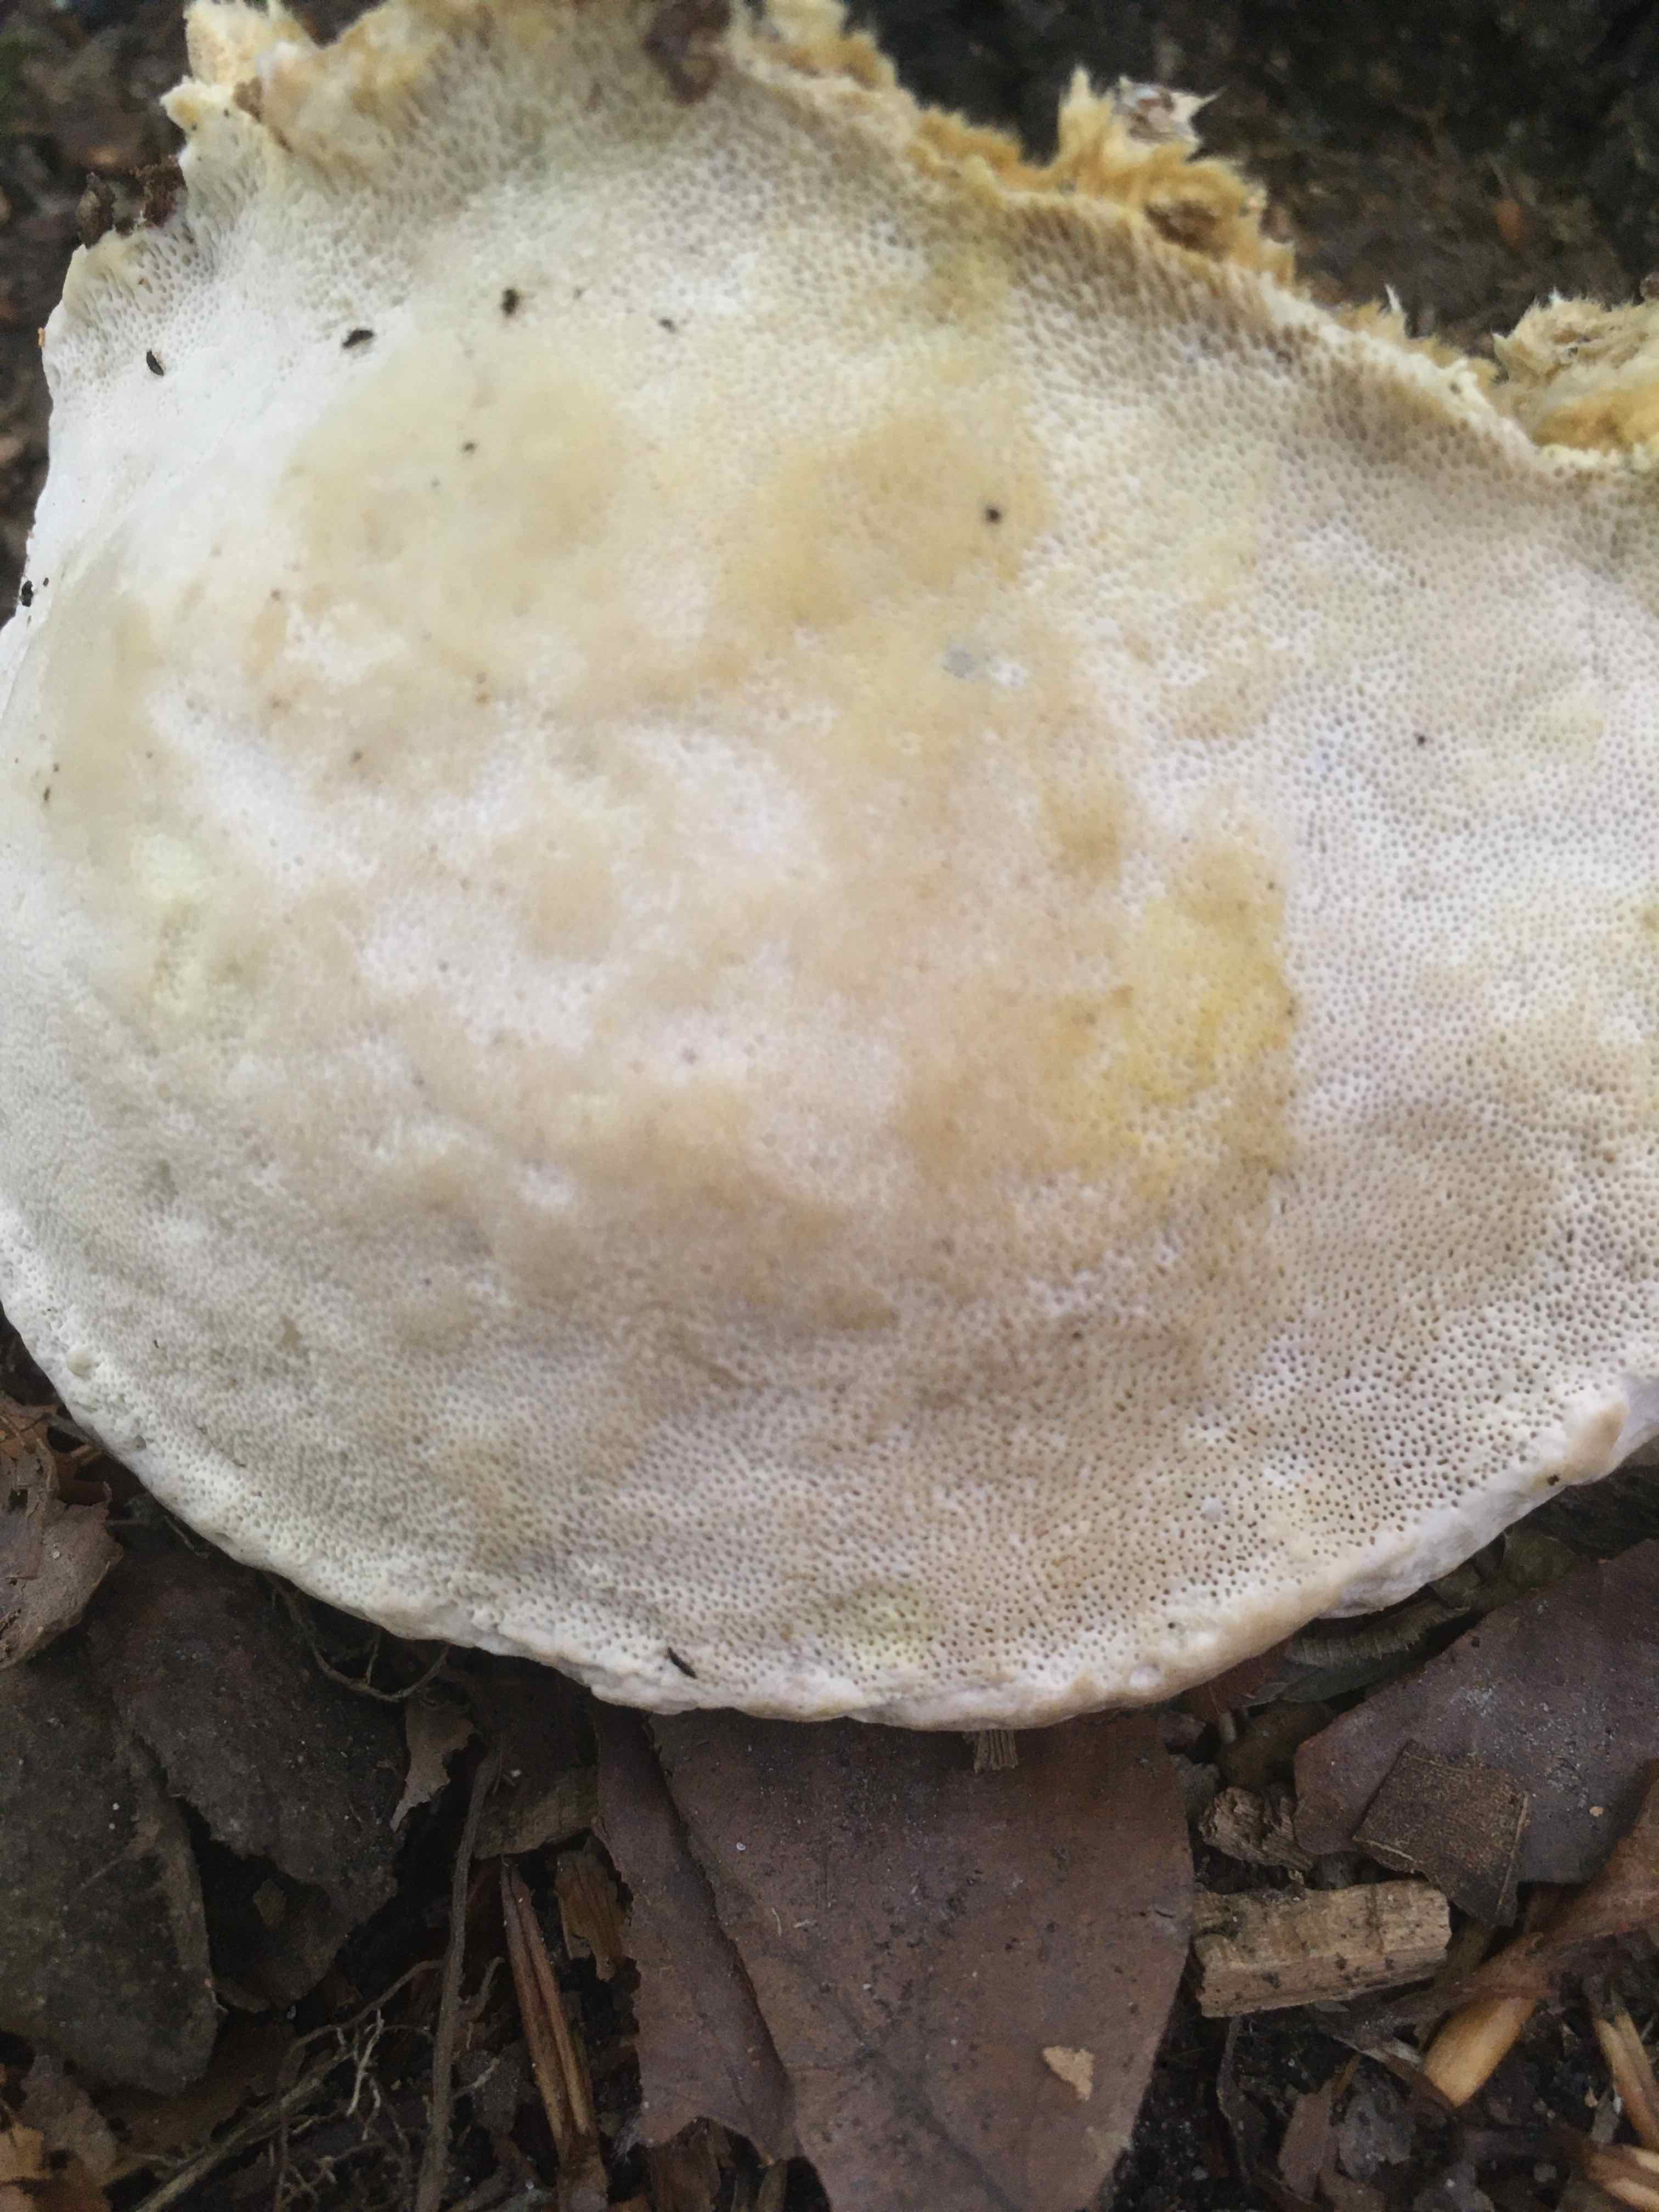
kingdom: Fungi
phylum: Basidiomycota
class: Agaricomycetes
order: Polyporales
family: Fomitopsidaceae
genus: Fomitopsis
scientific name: Fomitopsis pinicola
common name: randbæltet hovporesvamp
